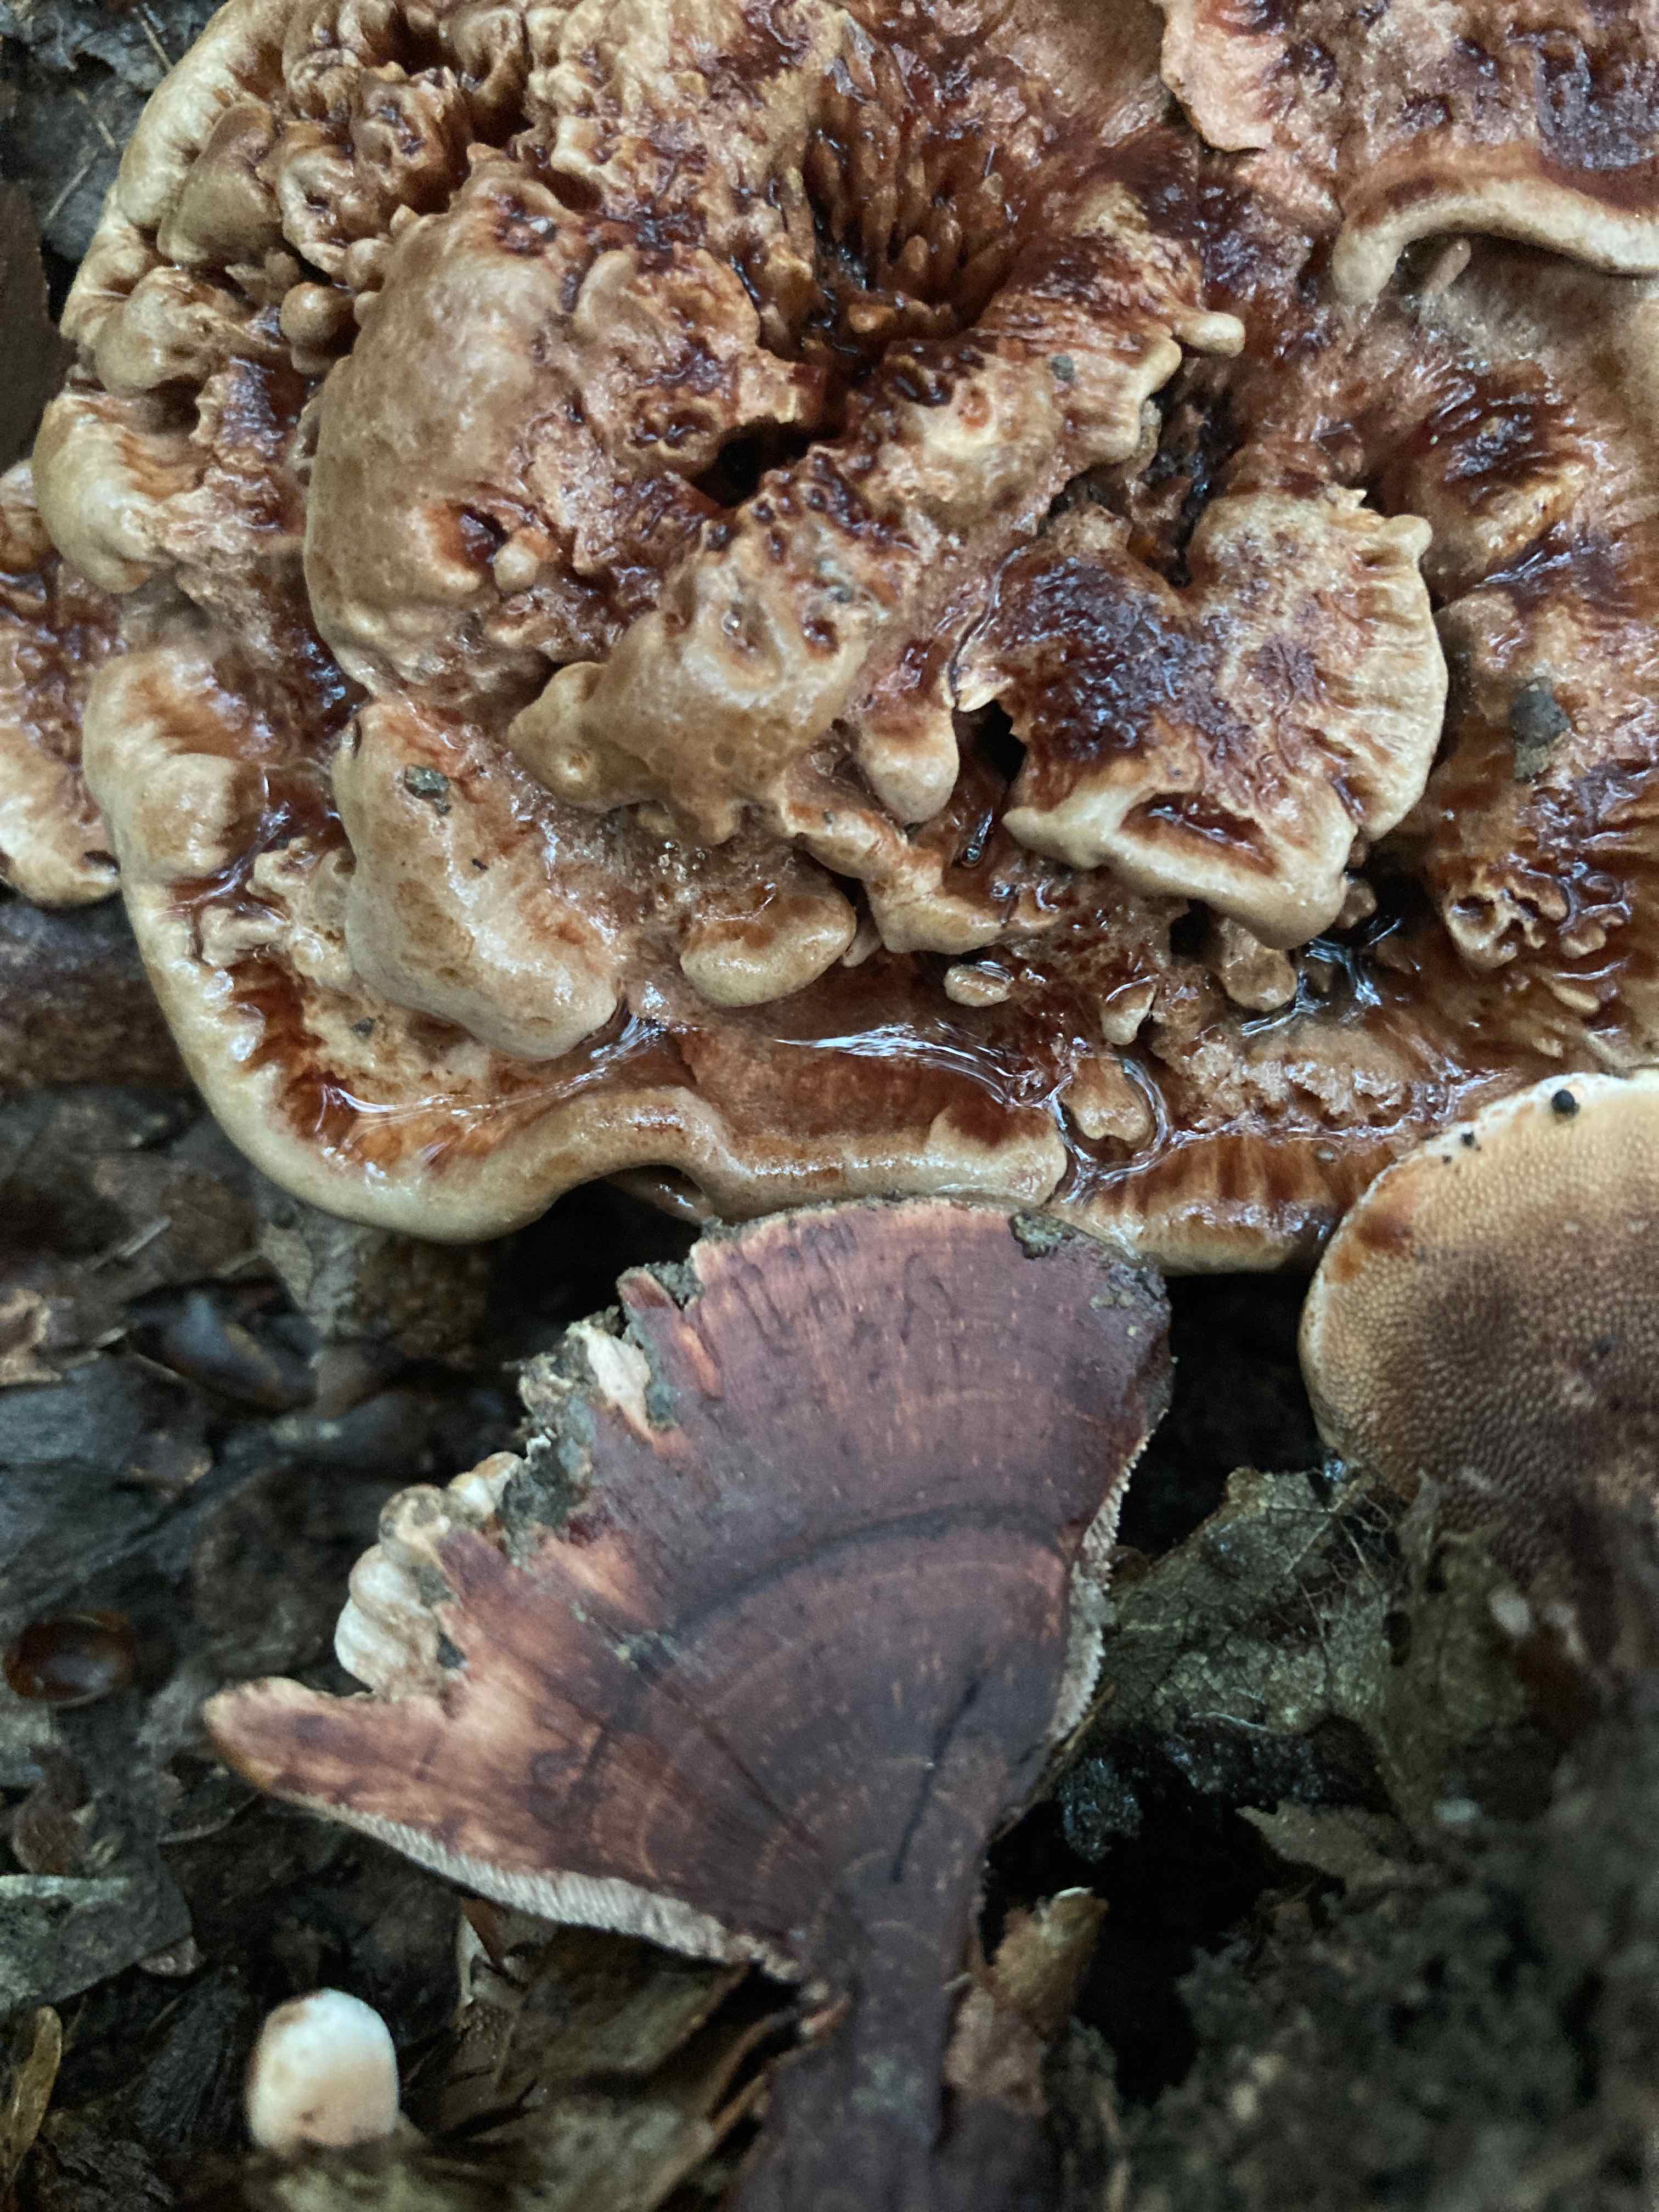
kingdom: Fungi
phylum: Basidiomycota
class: Agaricomycetes
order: Thelephorales
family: Bankeraceae
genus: Hydnellum
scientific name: Hydnellum
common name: korkpigsvamp
